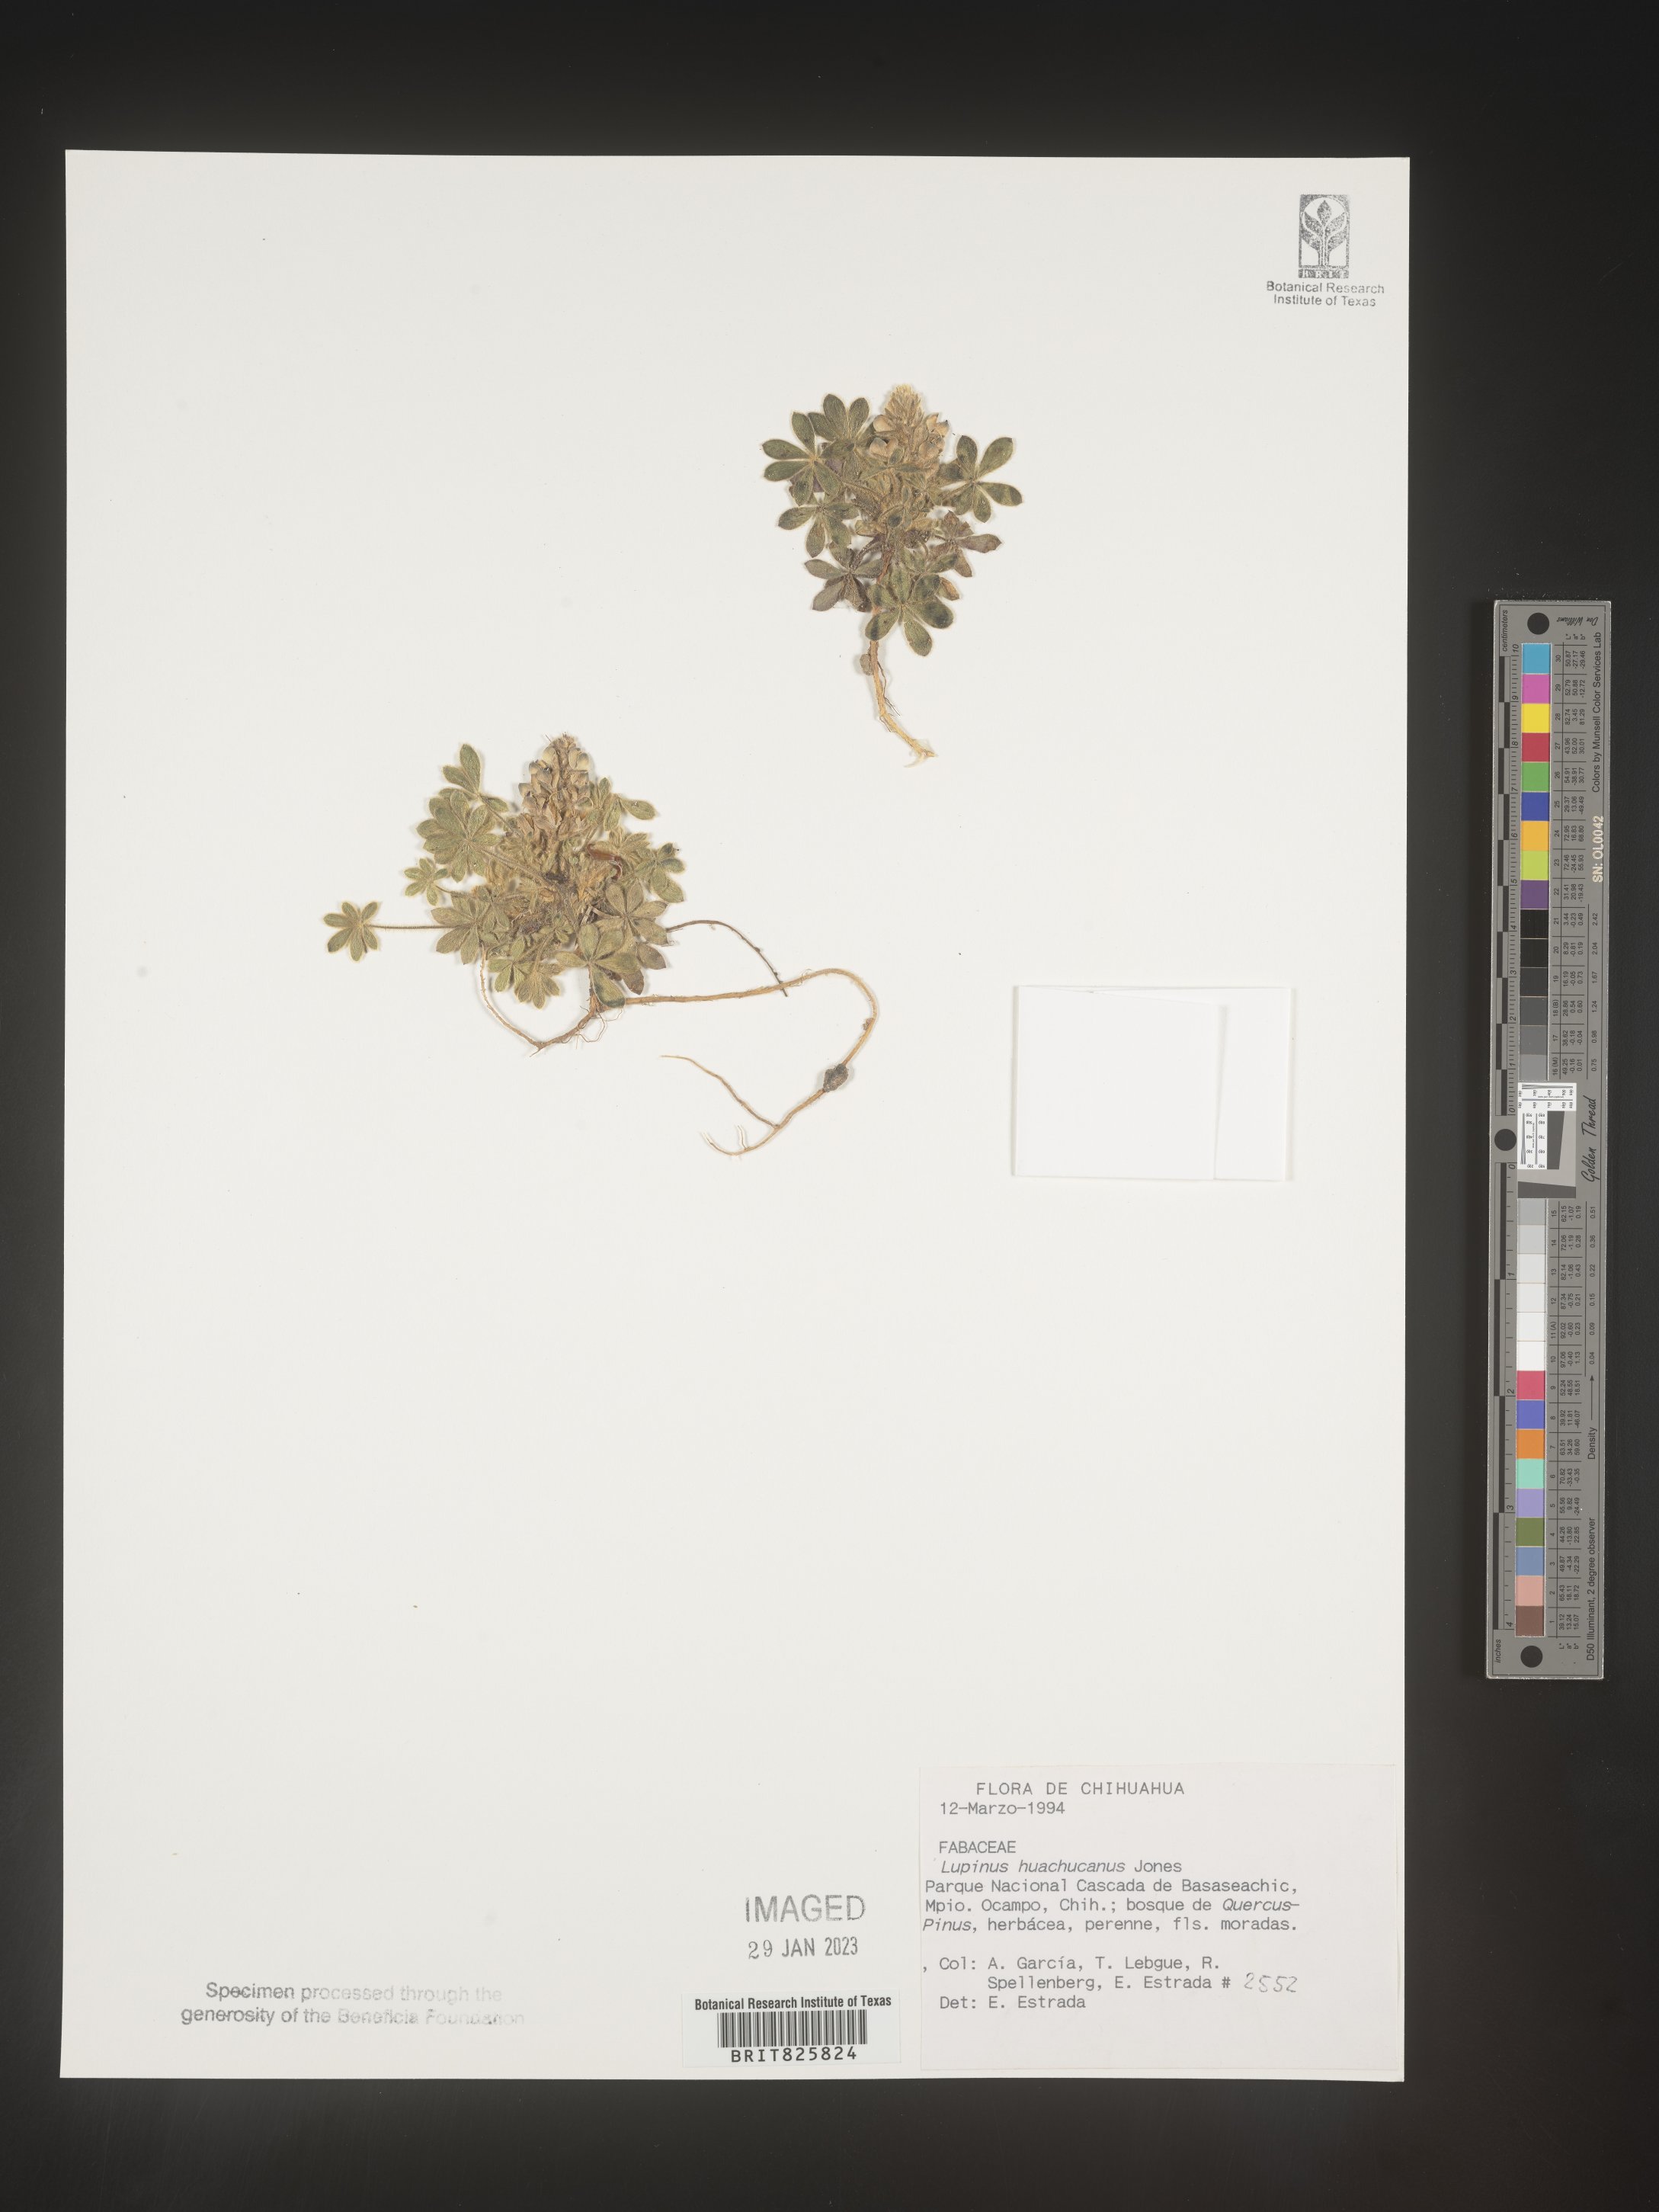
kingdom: Plantae
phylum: Tracheophyta
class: Magnoliopsida
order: Fabales
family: Fabaceae
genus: Lupinus
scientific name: Lupinus
